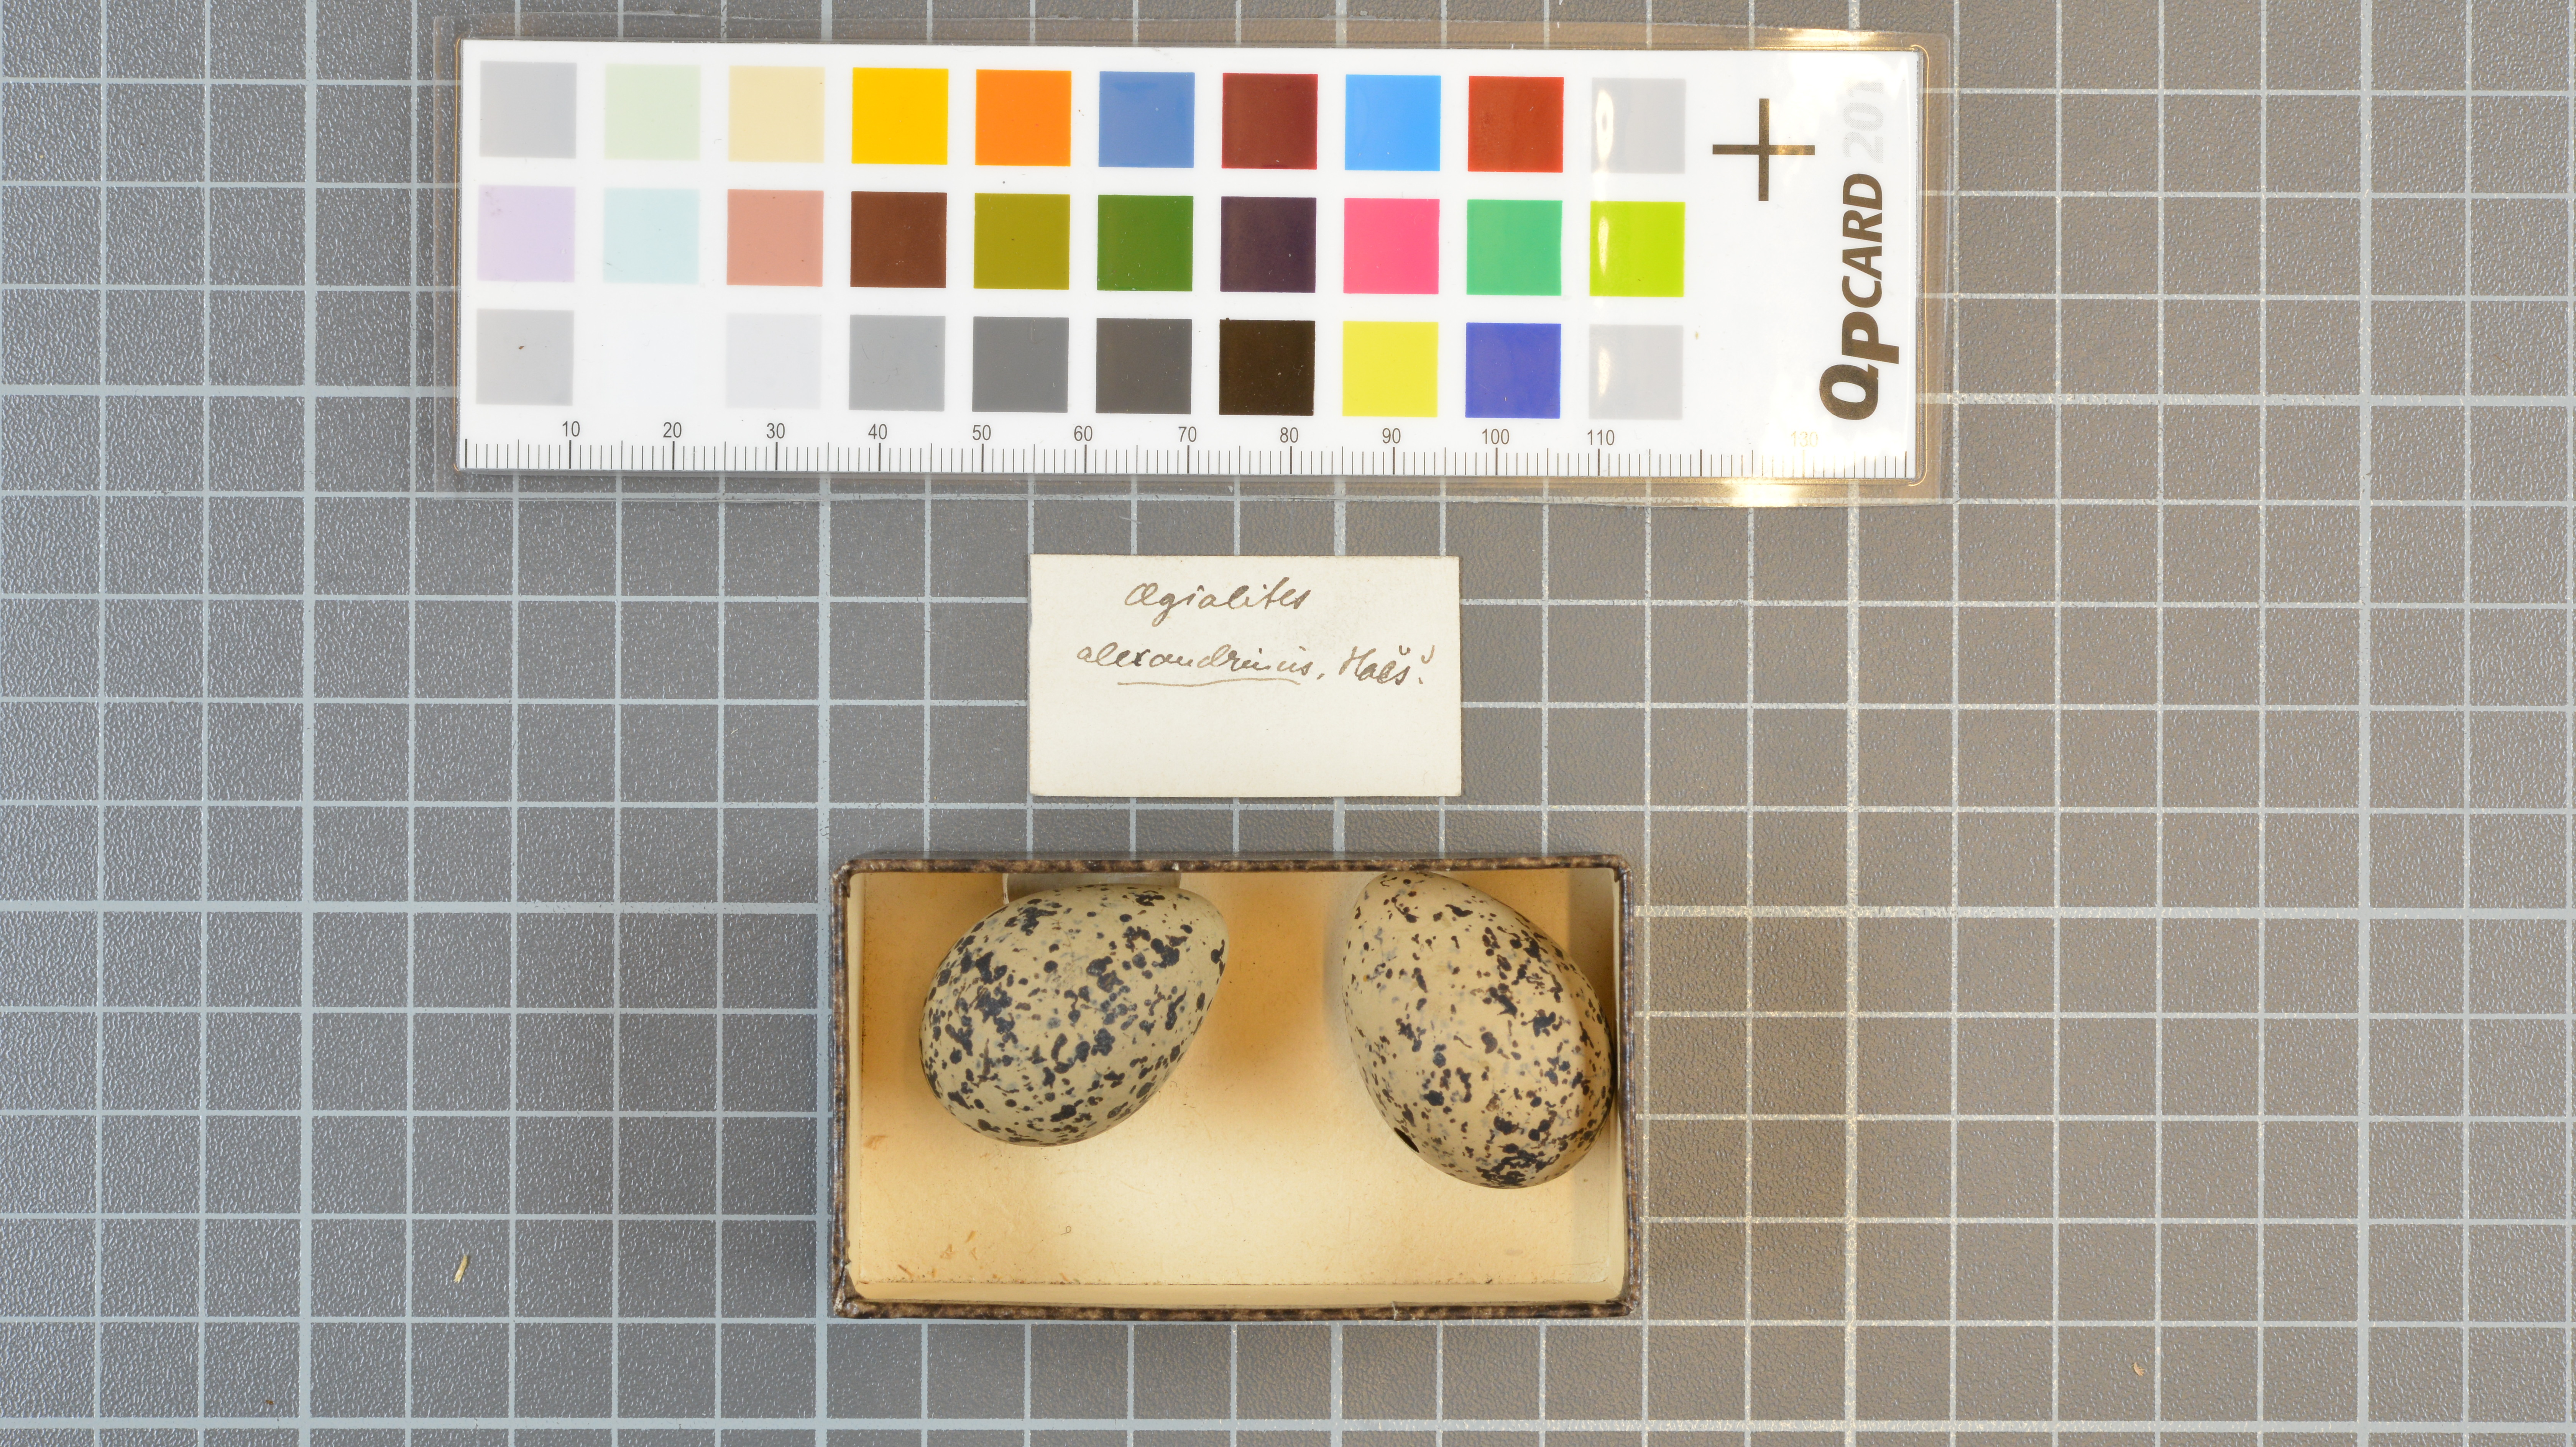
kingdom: Animalia
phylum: Chordata
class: Aves
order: Charadriiformes
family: Charadriidae
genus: Charadrius
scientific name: Charadrius alexandrinus
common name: Kentish plover
